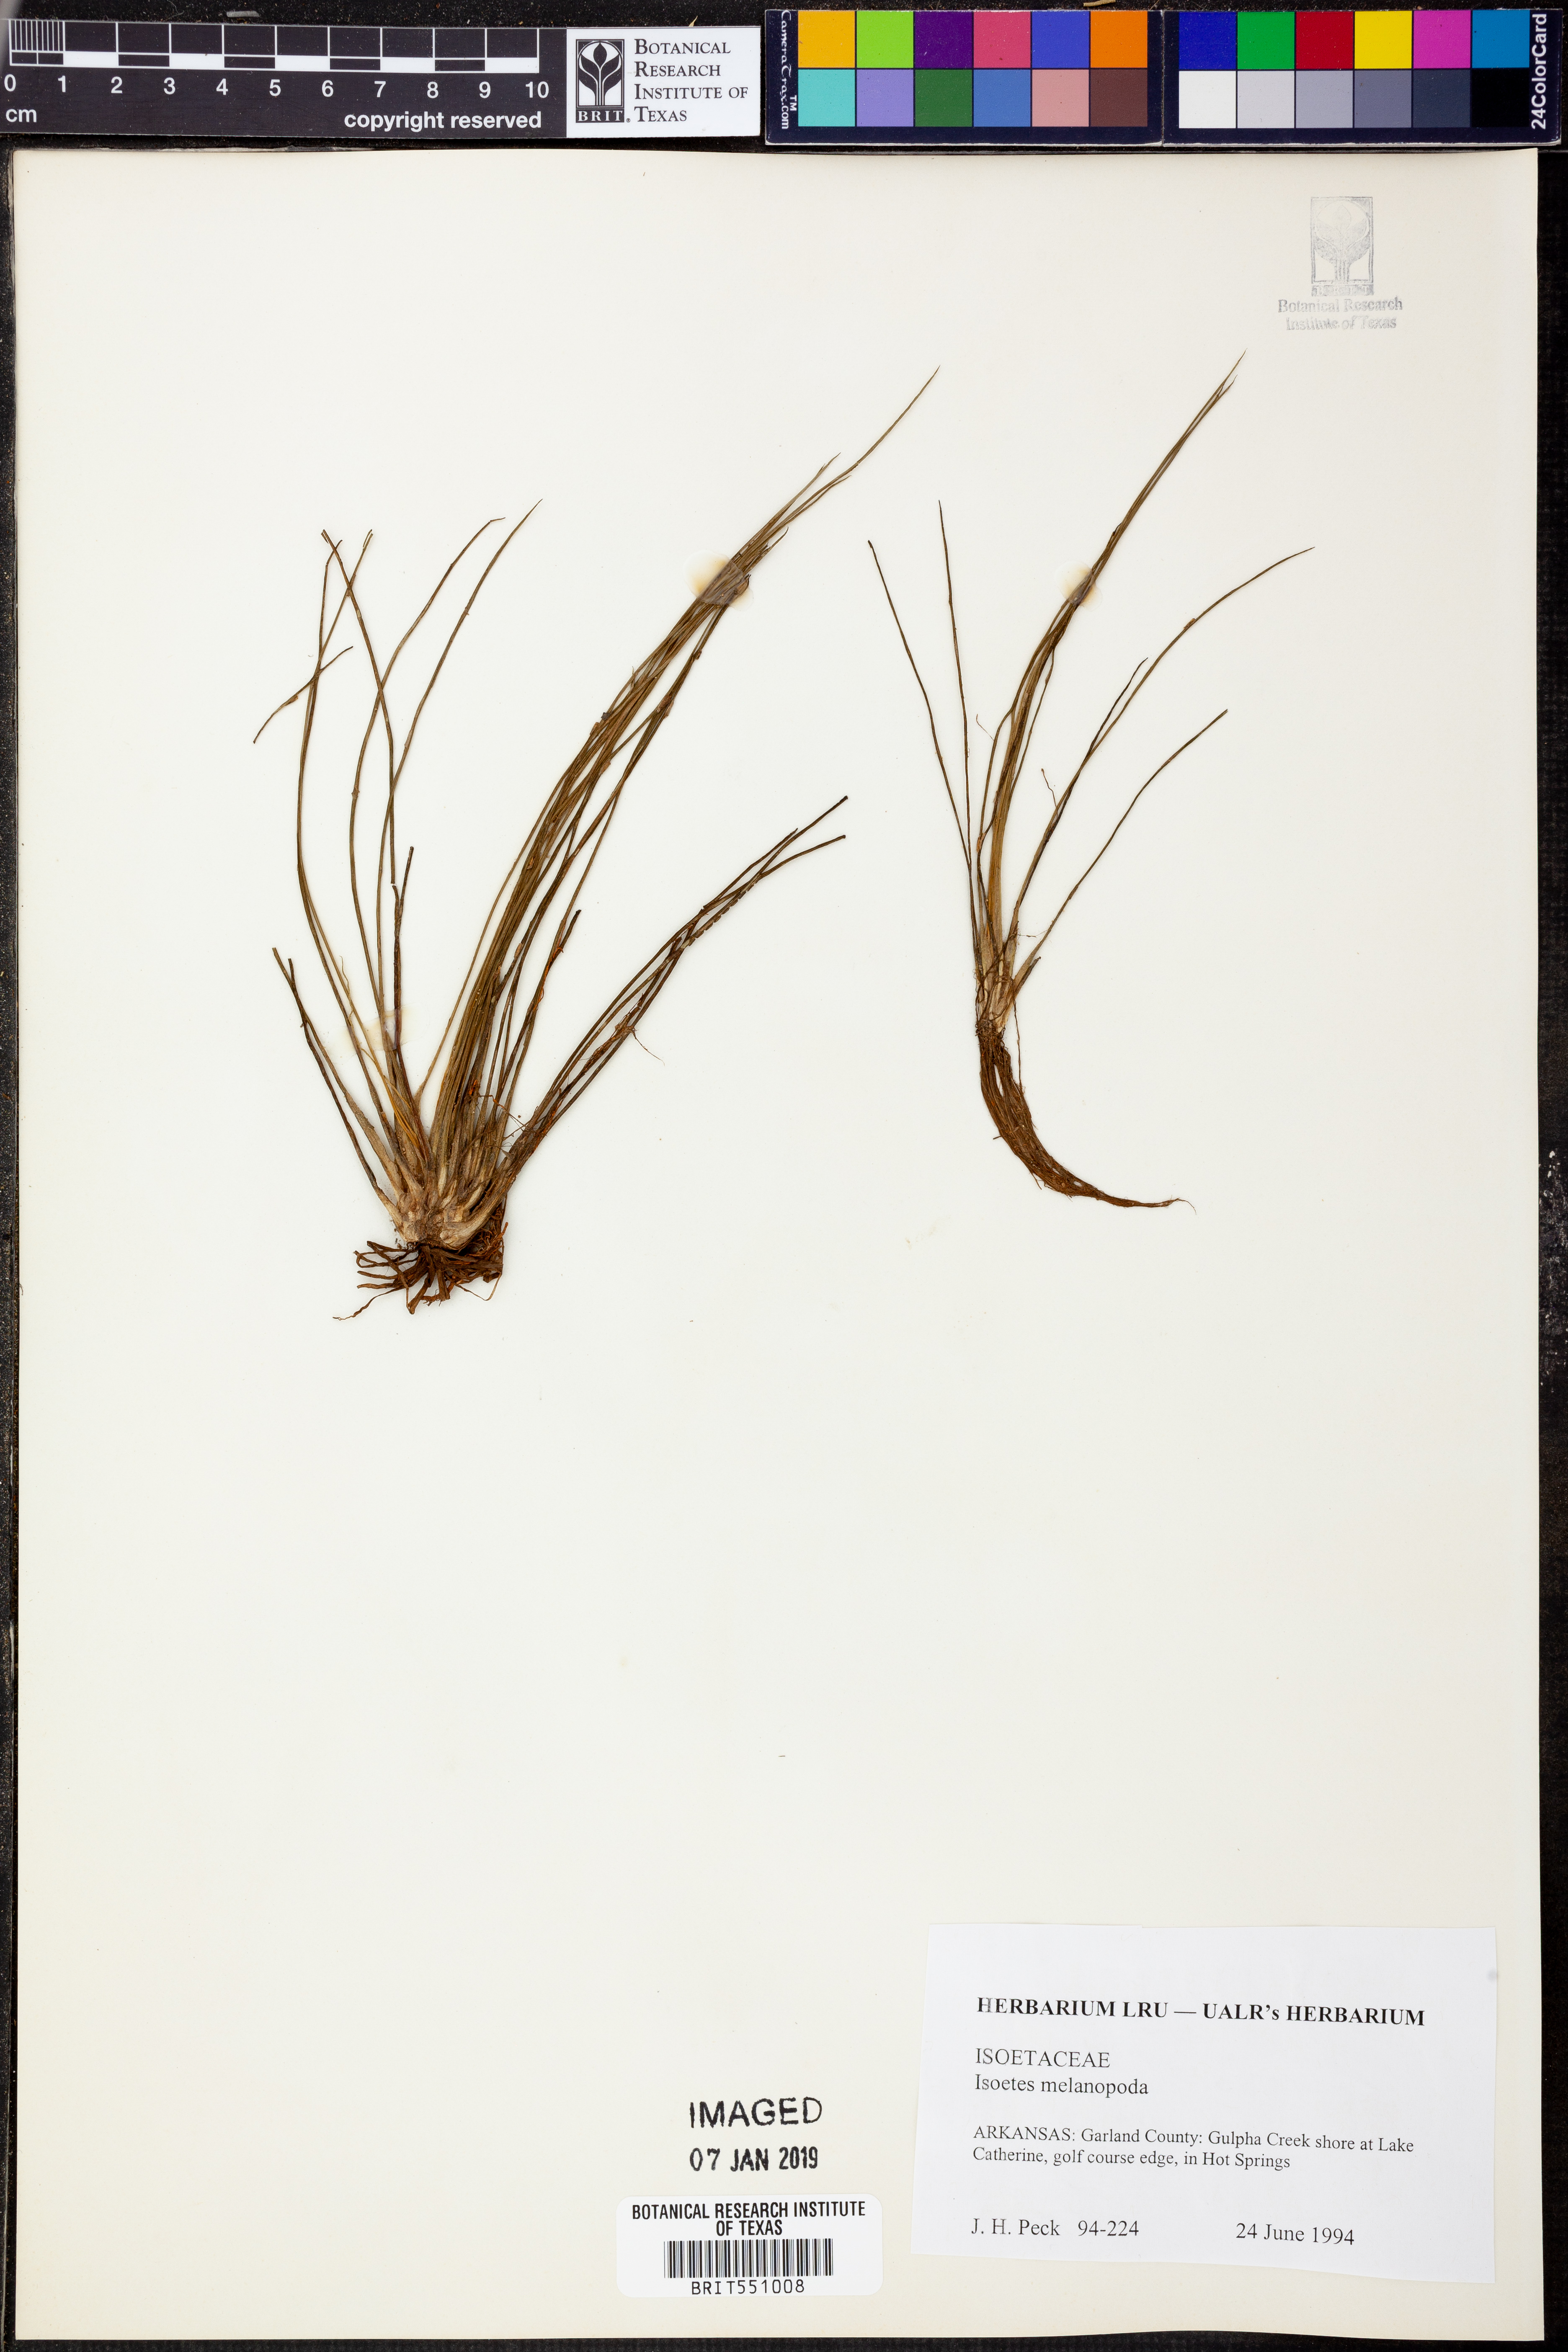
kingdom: Plantae
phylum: Tracheophyta
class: Lycopodiopsida
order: Isoetales
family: Isoetaceae
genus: Isoetes
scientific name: Isoetes melanopoda
